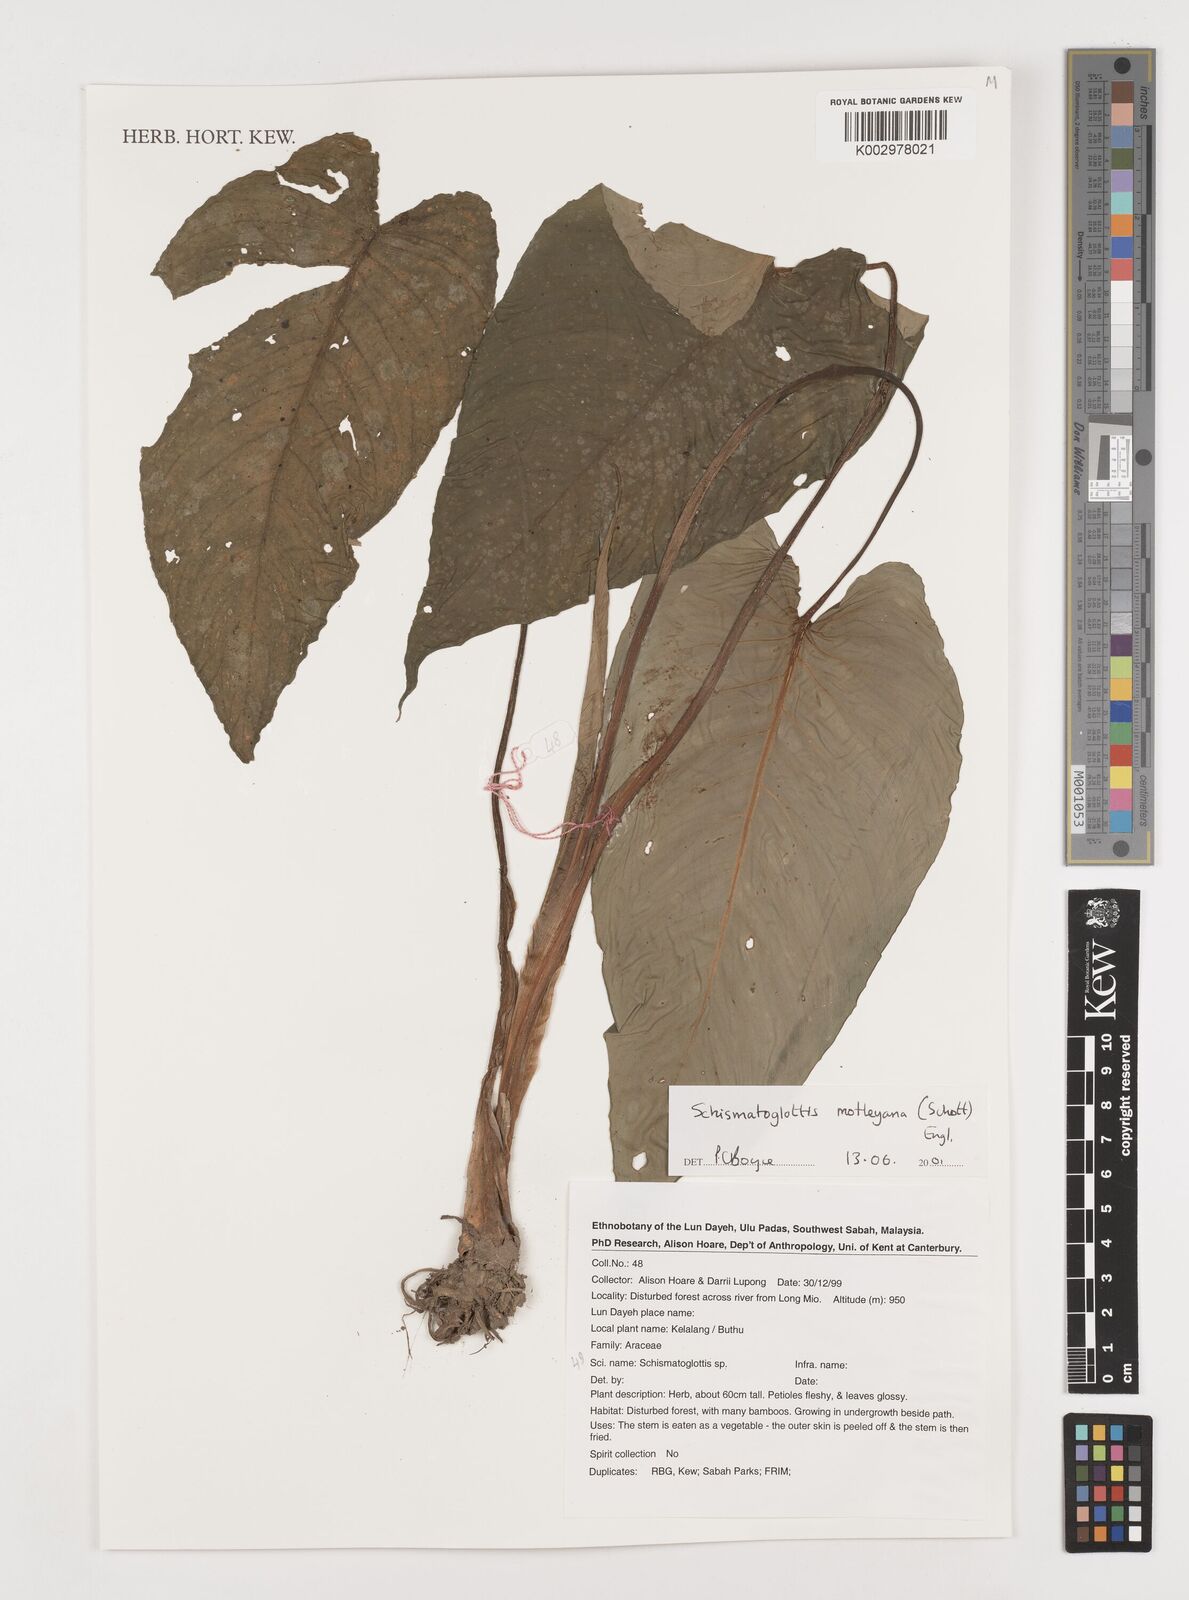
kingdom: Plantae
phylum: Tracheophyta
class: Liliopsida
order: Alismatales
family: Araceae
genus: Schismatoglottis
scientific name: Schismatoglottis motleyana
